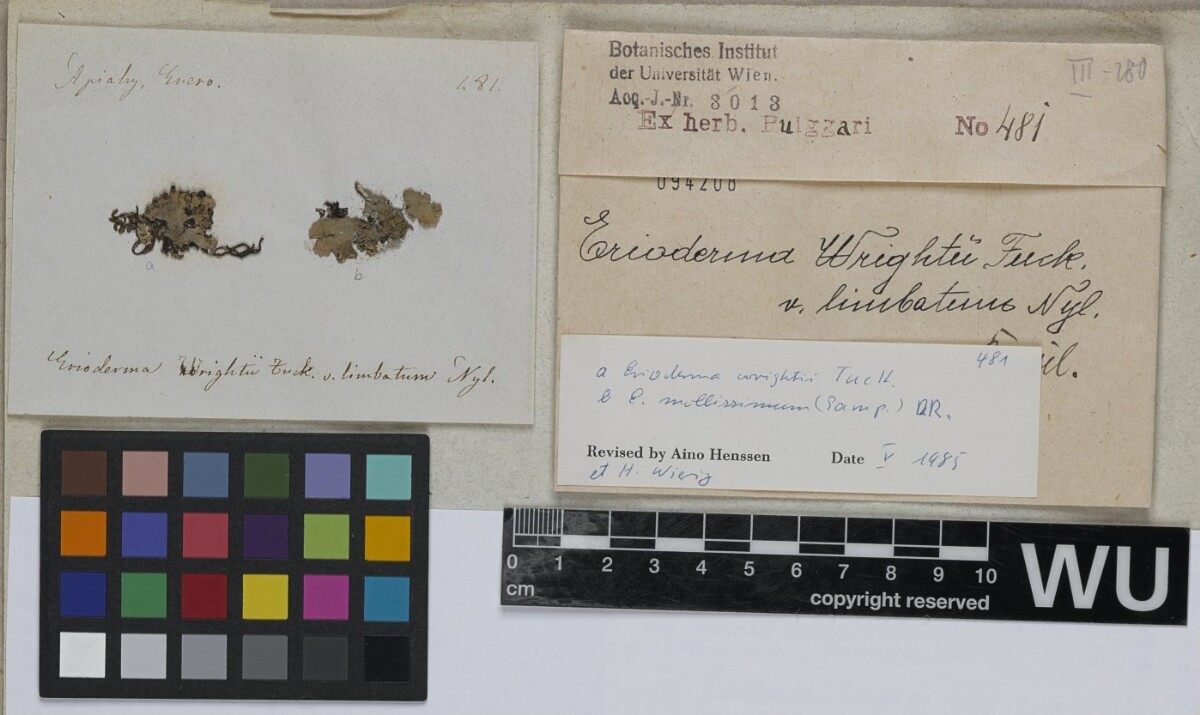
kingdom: Fungi
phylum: Ascomycota
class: Lecanoromycetes
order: Peltigerales
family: Pannariaceae
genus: Erioderma
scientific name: Erioderma wrightii
